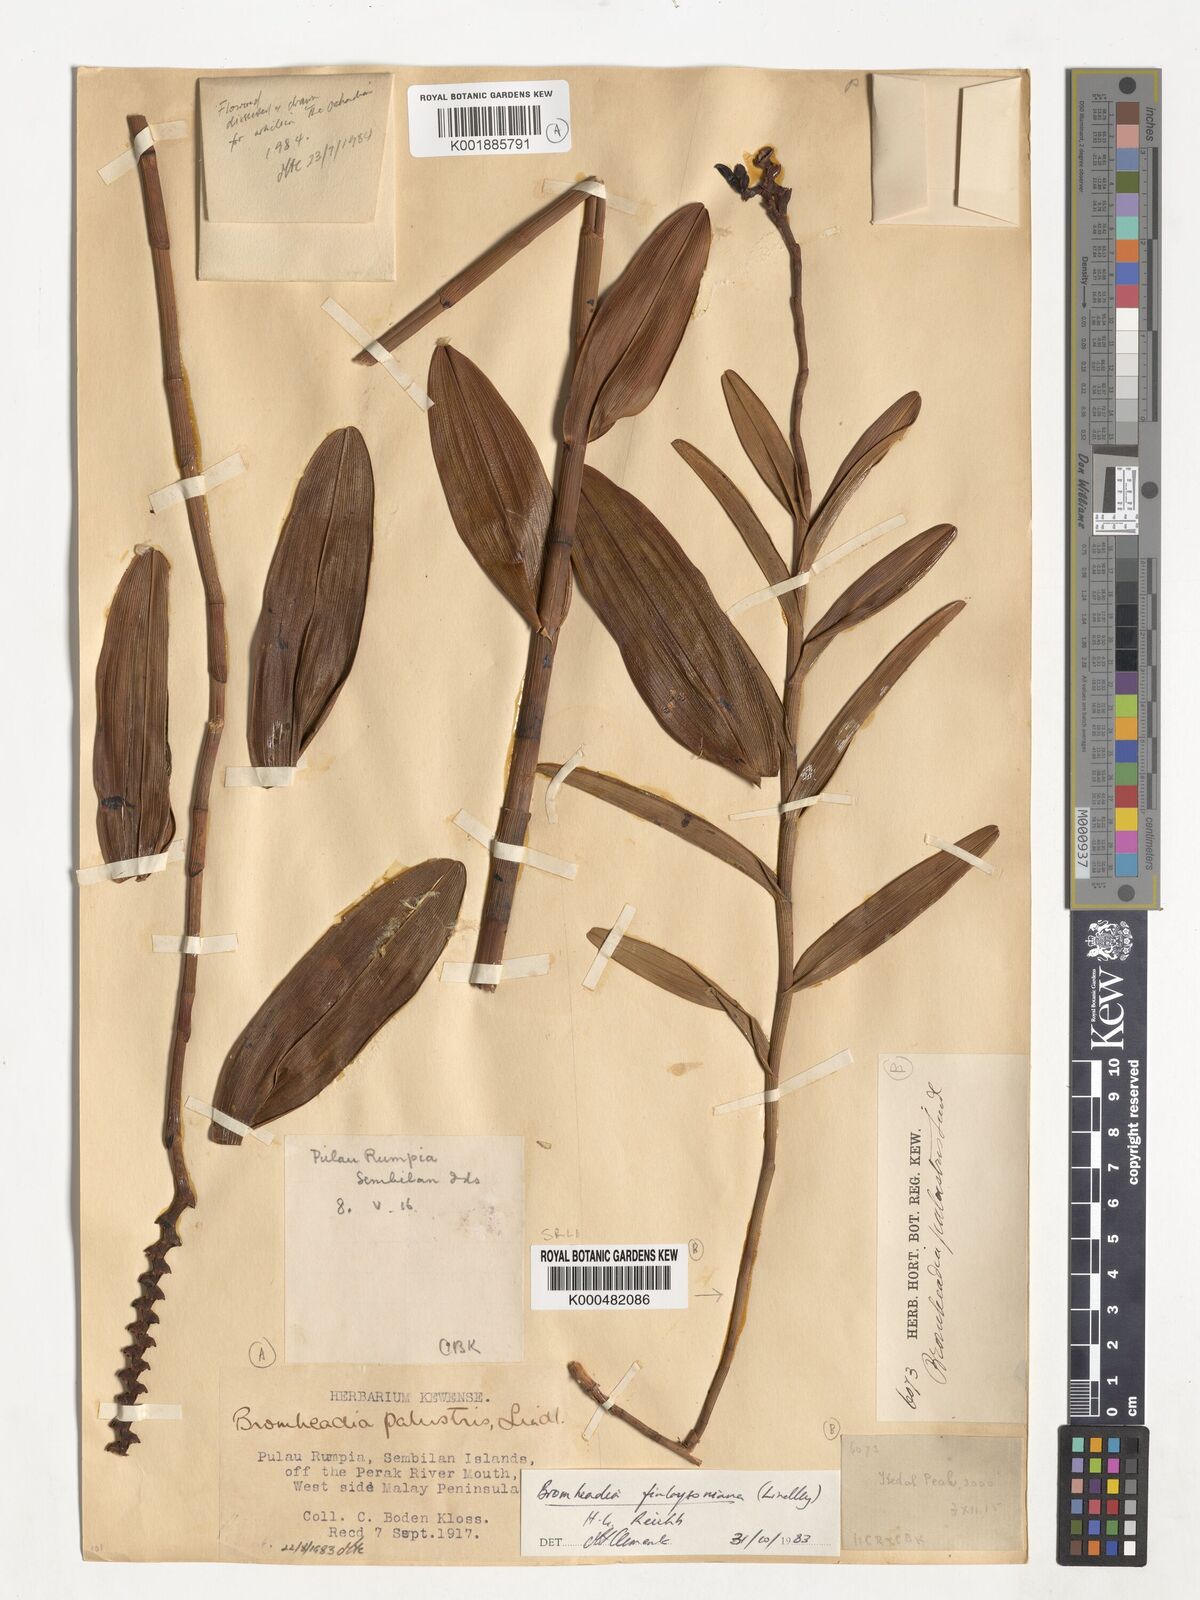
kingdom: Plantae
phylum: Tracheophyta
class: Liliopsida
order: Asparagales
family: Orchidaceae
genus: Bromheadia
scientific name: Bromheadia finlaysoniana
